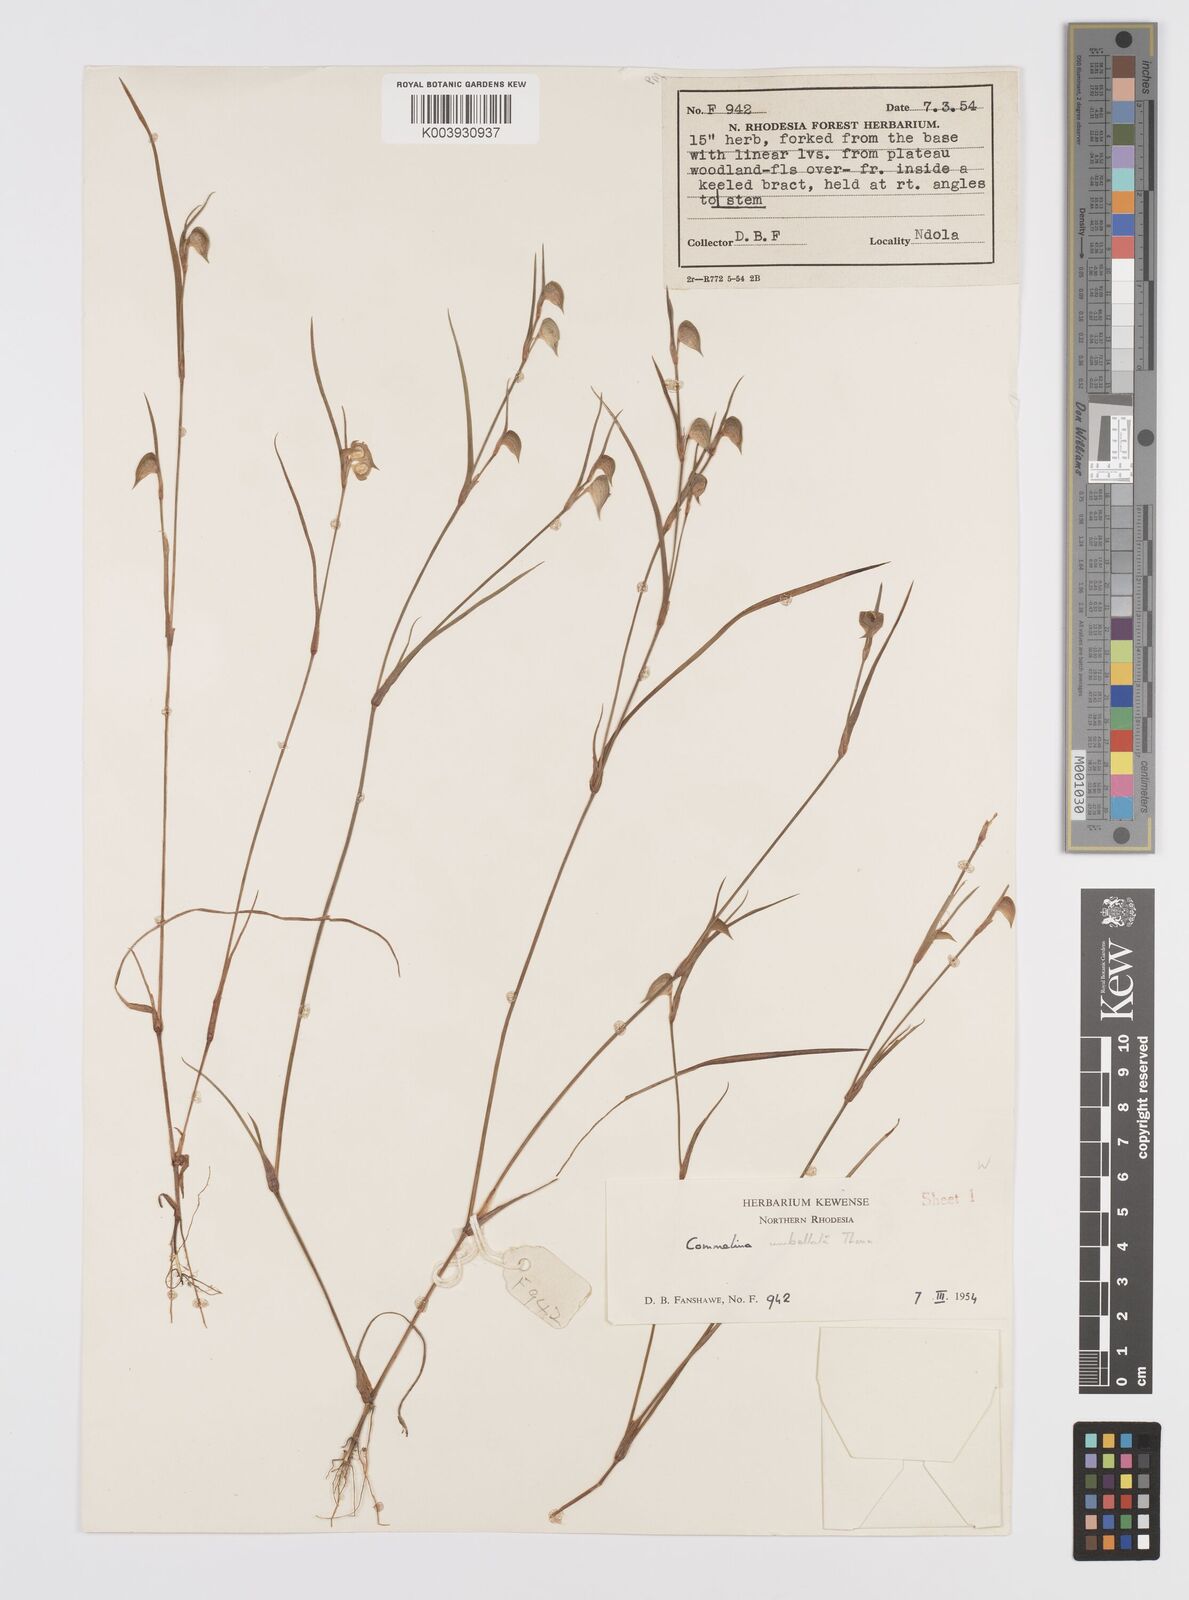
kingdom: Plantae
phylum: Tracheophyta
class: Liliopsida
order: Commelinales
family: Commelinaceae
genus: Commelina
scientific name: Commelina nigritana
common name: African dayflower
